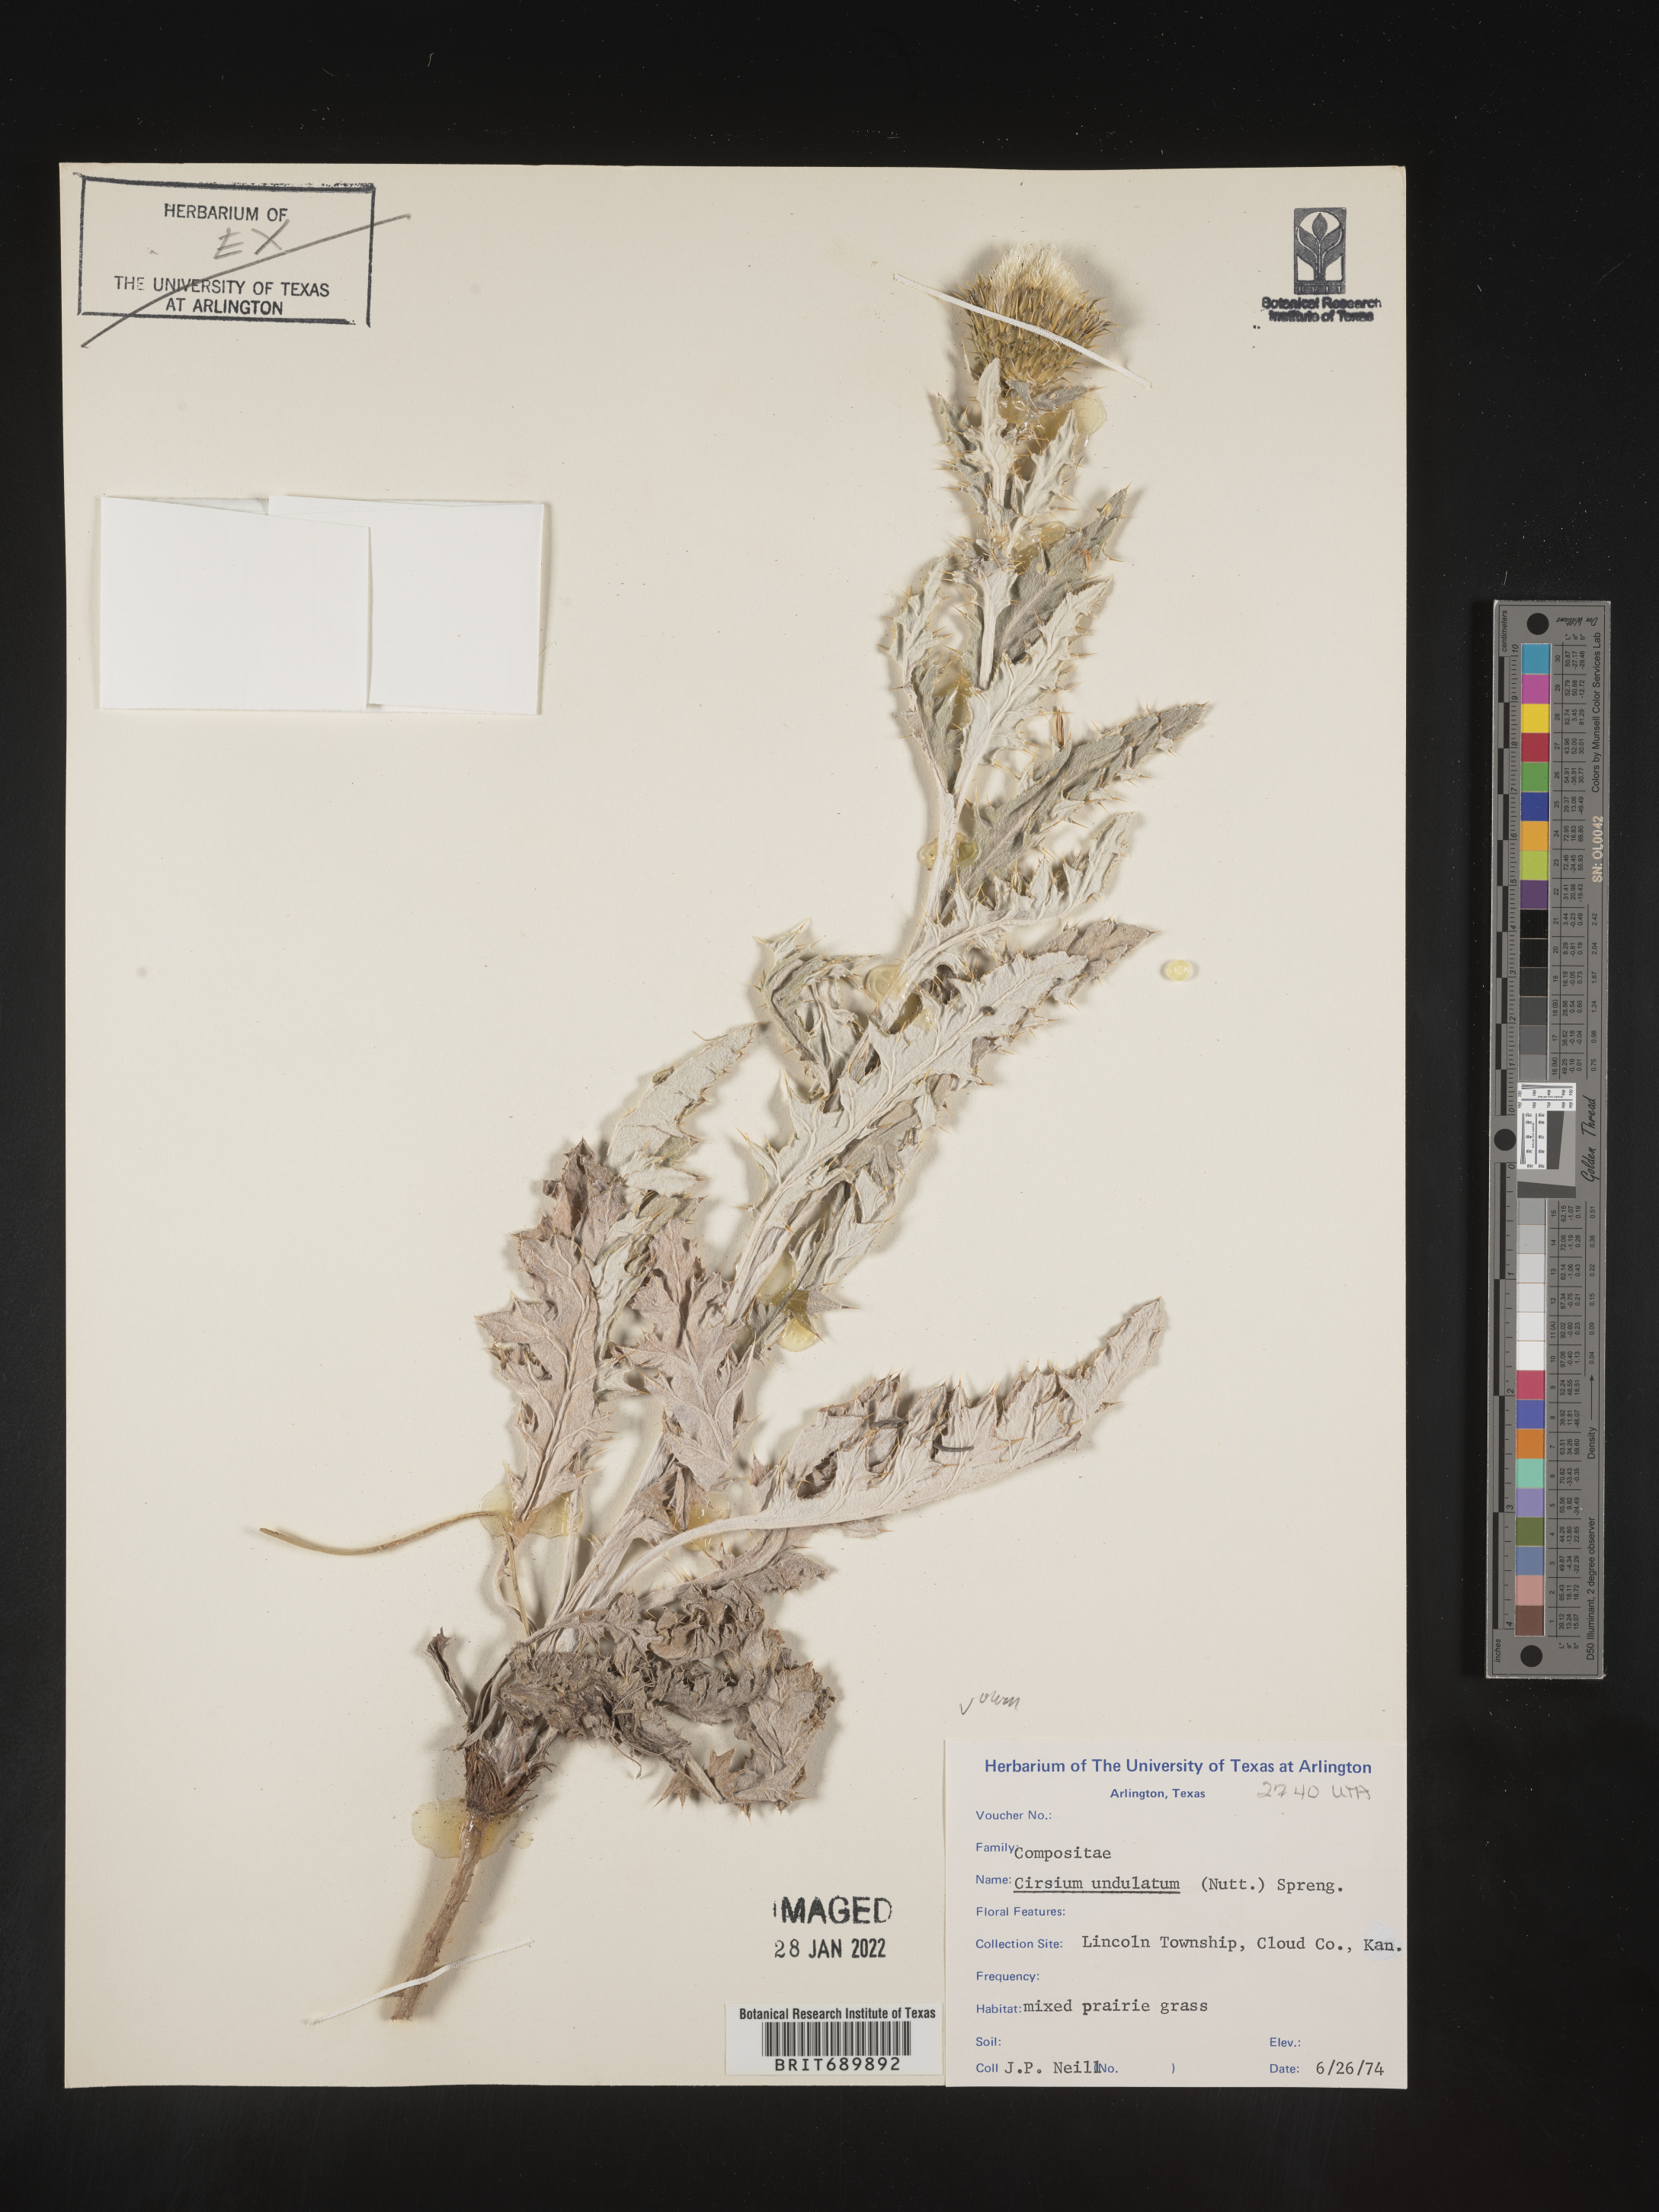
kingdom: Plantae
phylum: Tracheophyta
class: Magnoliopsida
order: Asterales
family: Asteraceae
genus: Cirsium
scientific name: Cirsium undulatum
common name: Pasture thistle
